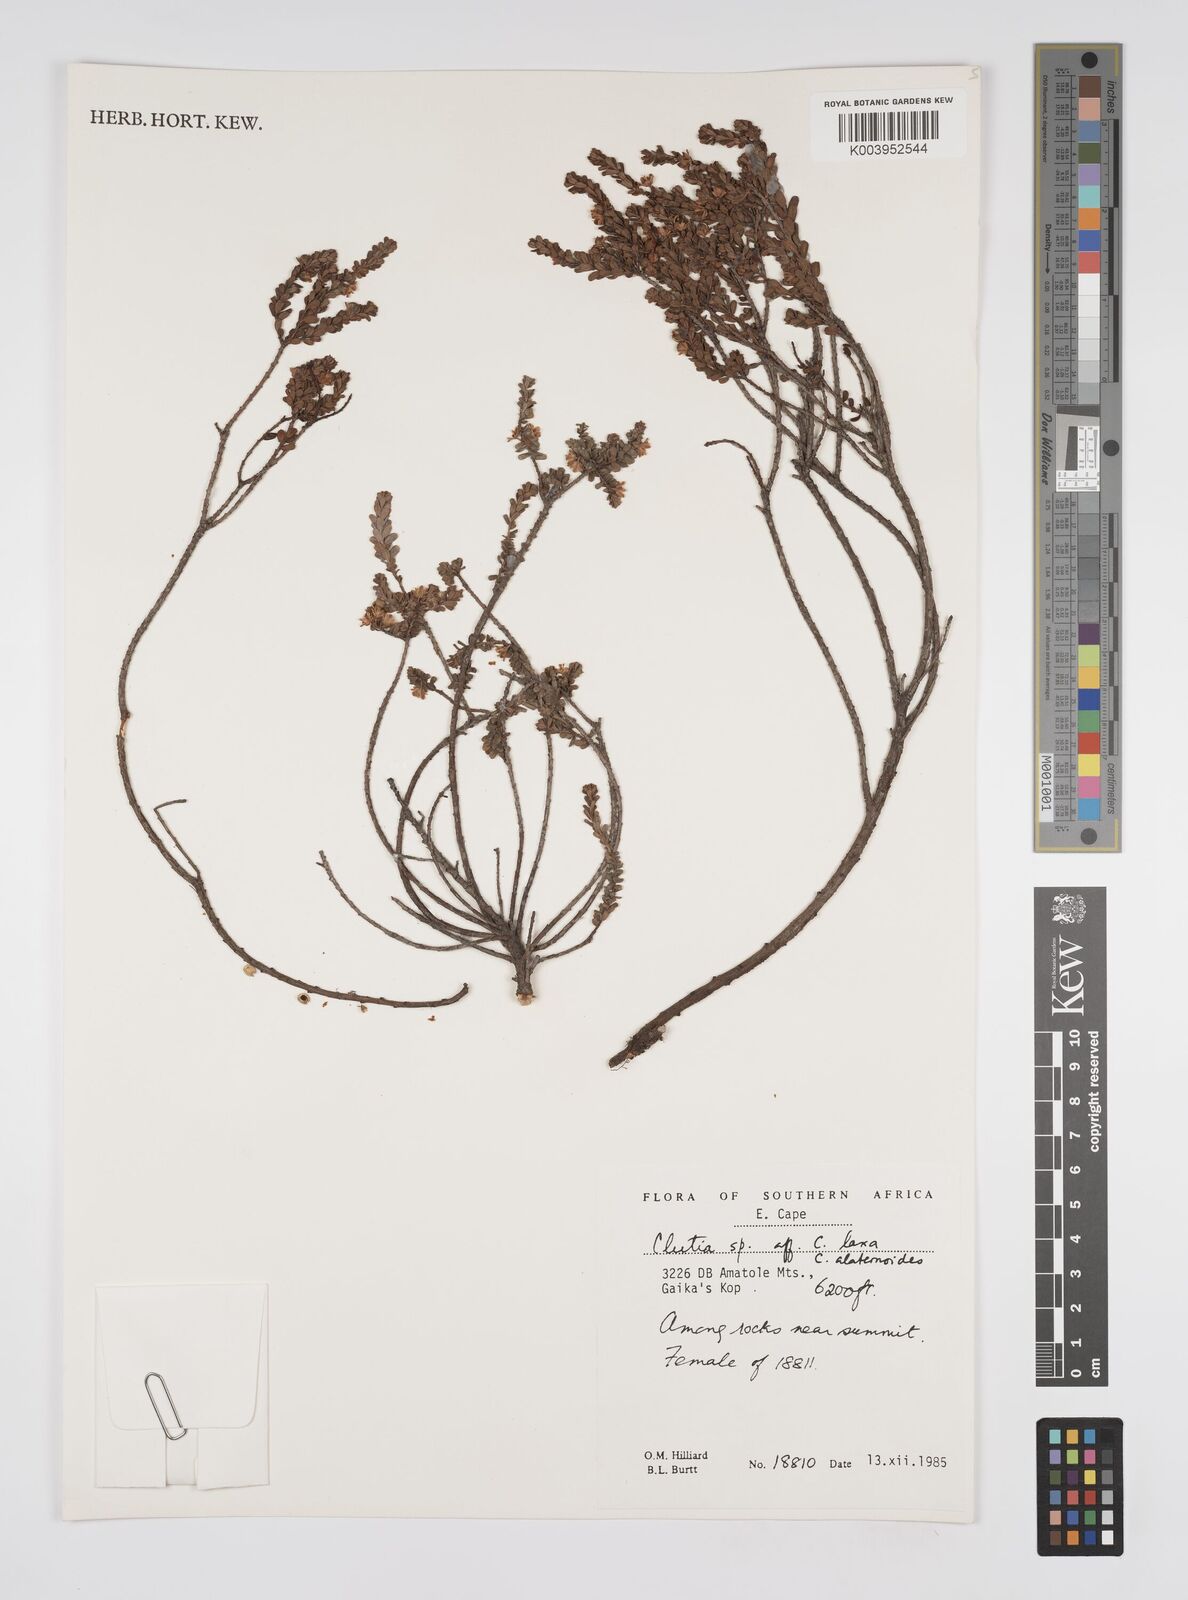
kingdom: Plantae
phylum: Tracheophyta
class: Magnoliopsida
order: Malpighiales
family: Peraceae
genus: Clutia
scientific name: Clutia
